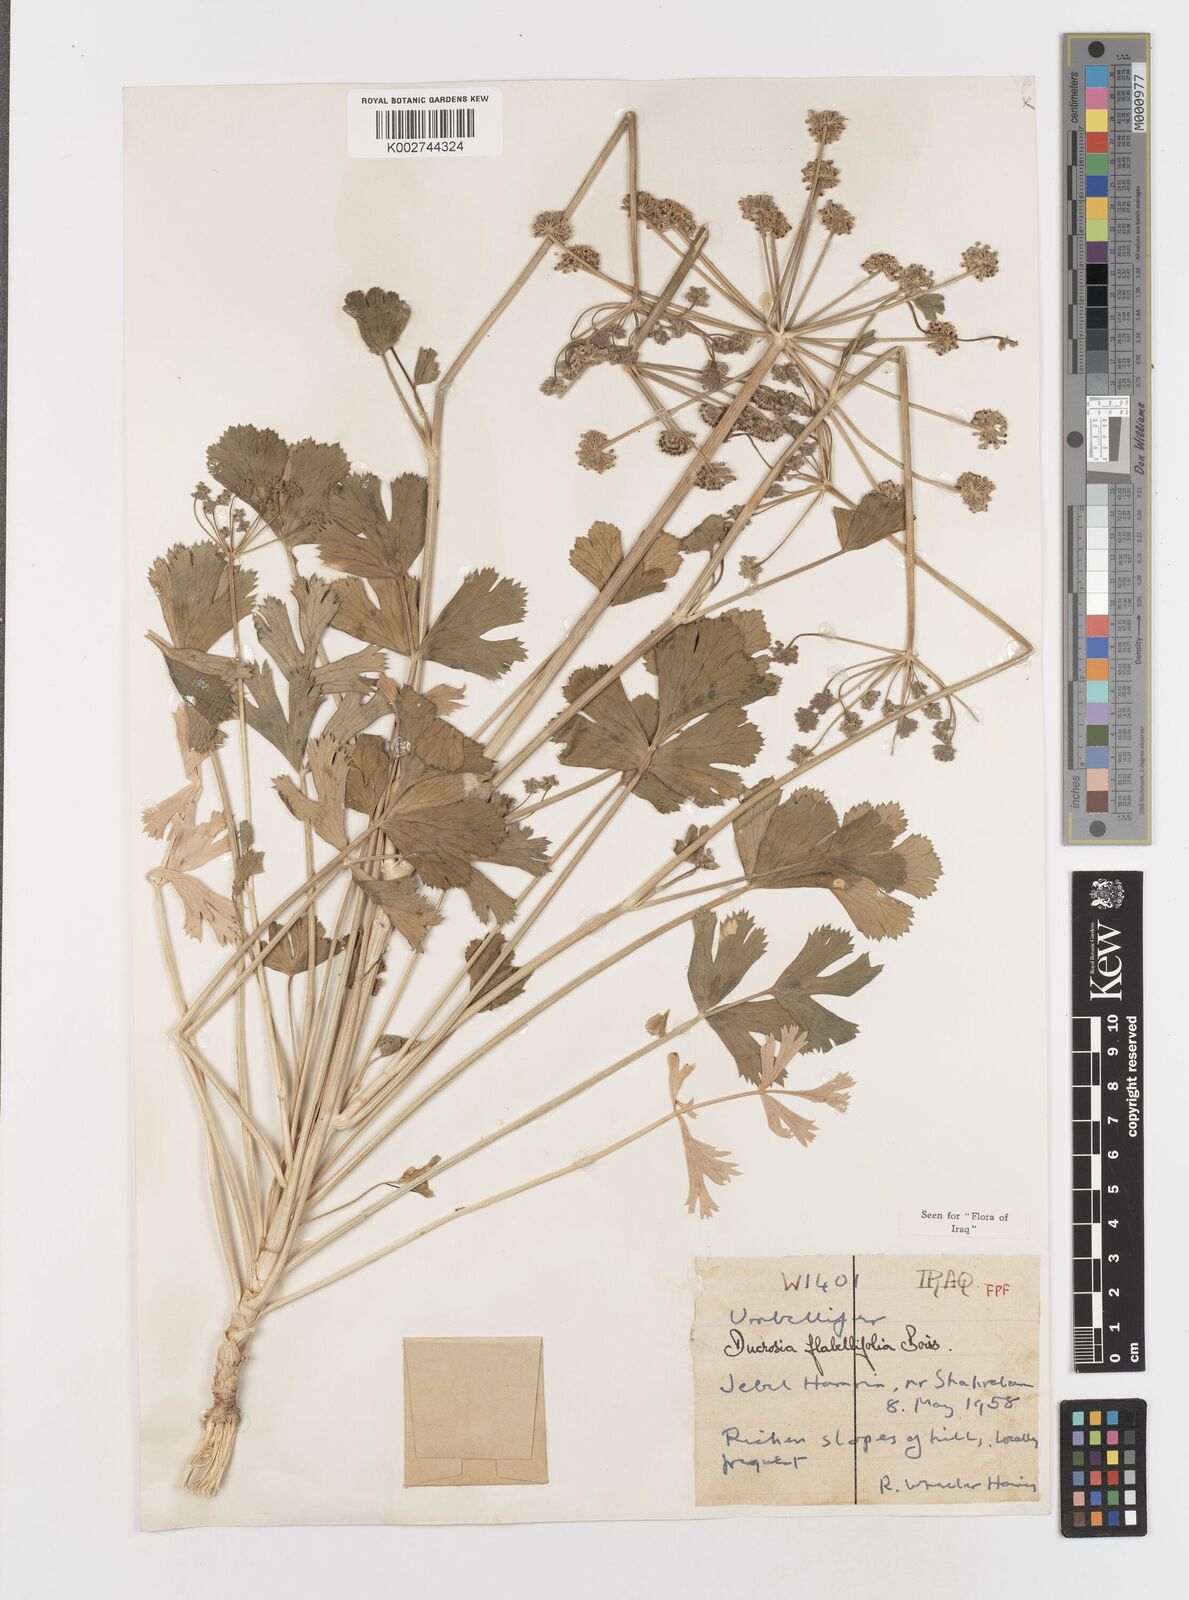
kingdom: Plantae
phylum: Tracheophyta
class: Magnoliopsida
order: Apiales
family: Apiaceae
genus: Ducrosia
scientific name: Ducrosia flabellifolia
